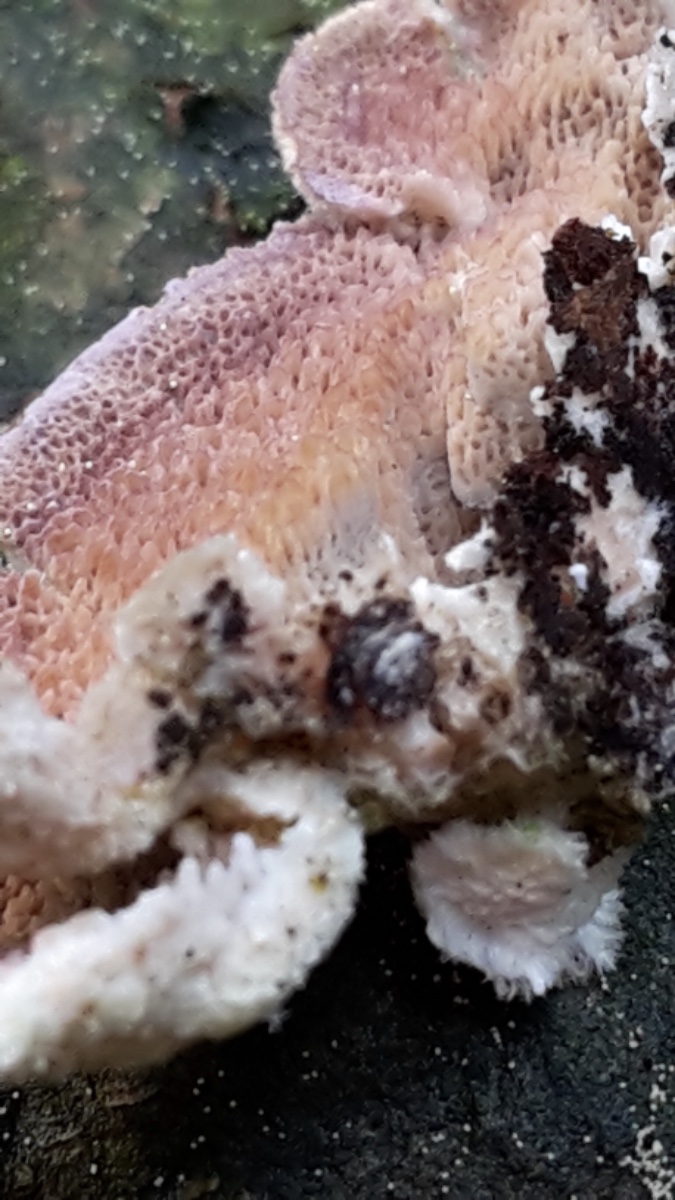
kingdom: Fungi
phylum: Basidiomycota
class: Agaricomycetes
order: Hymenochaetales
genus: Trichaptum
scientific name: Trichaptum abietinum
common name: almindelig violporesvamp
